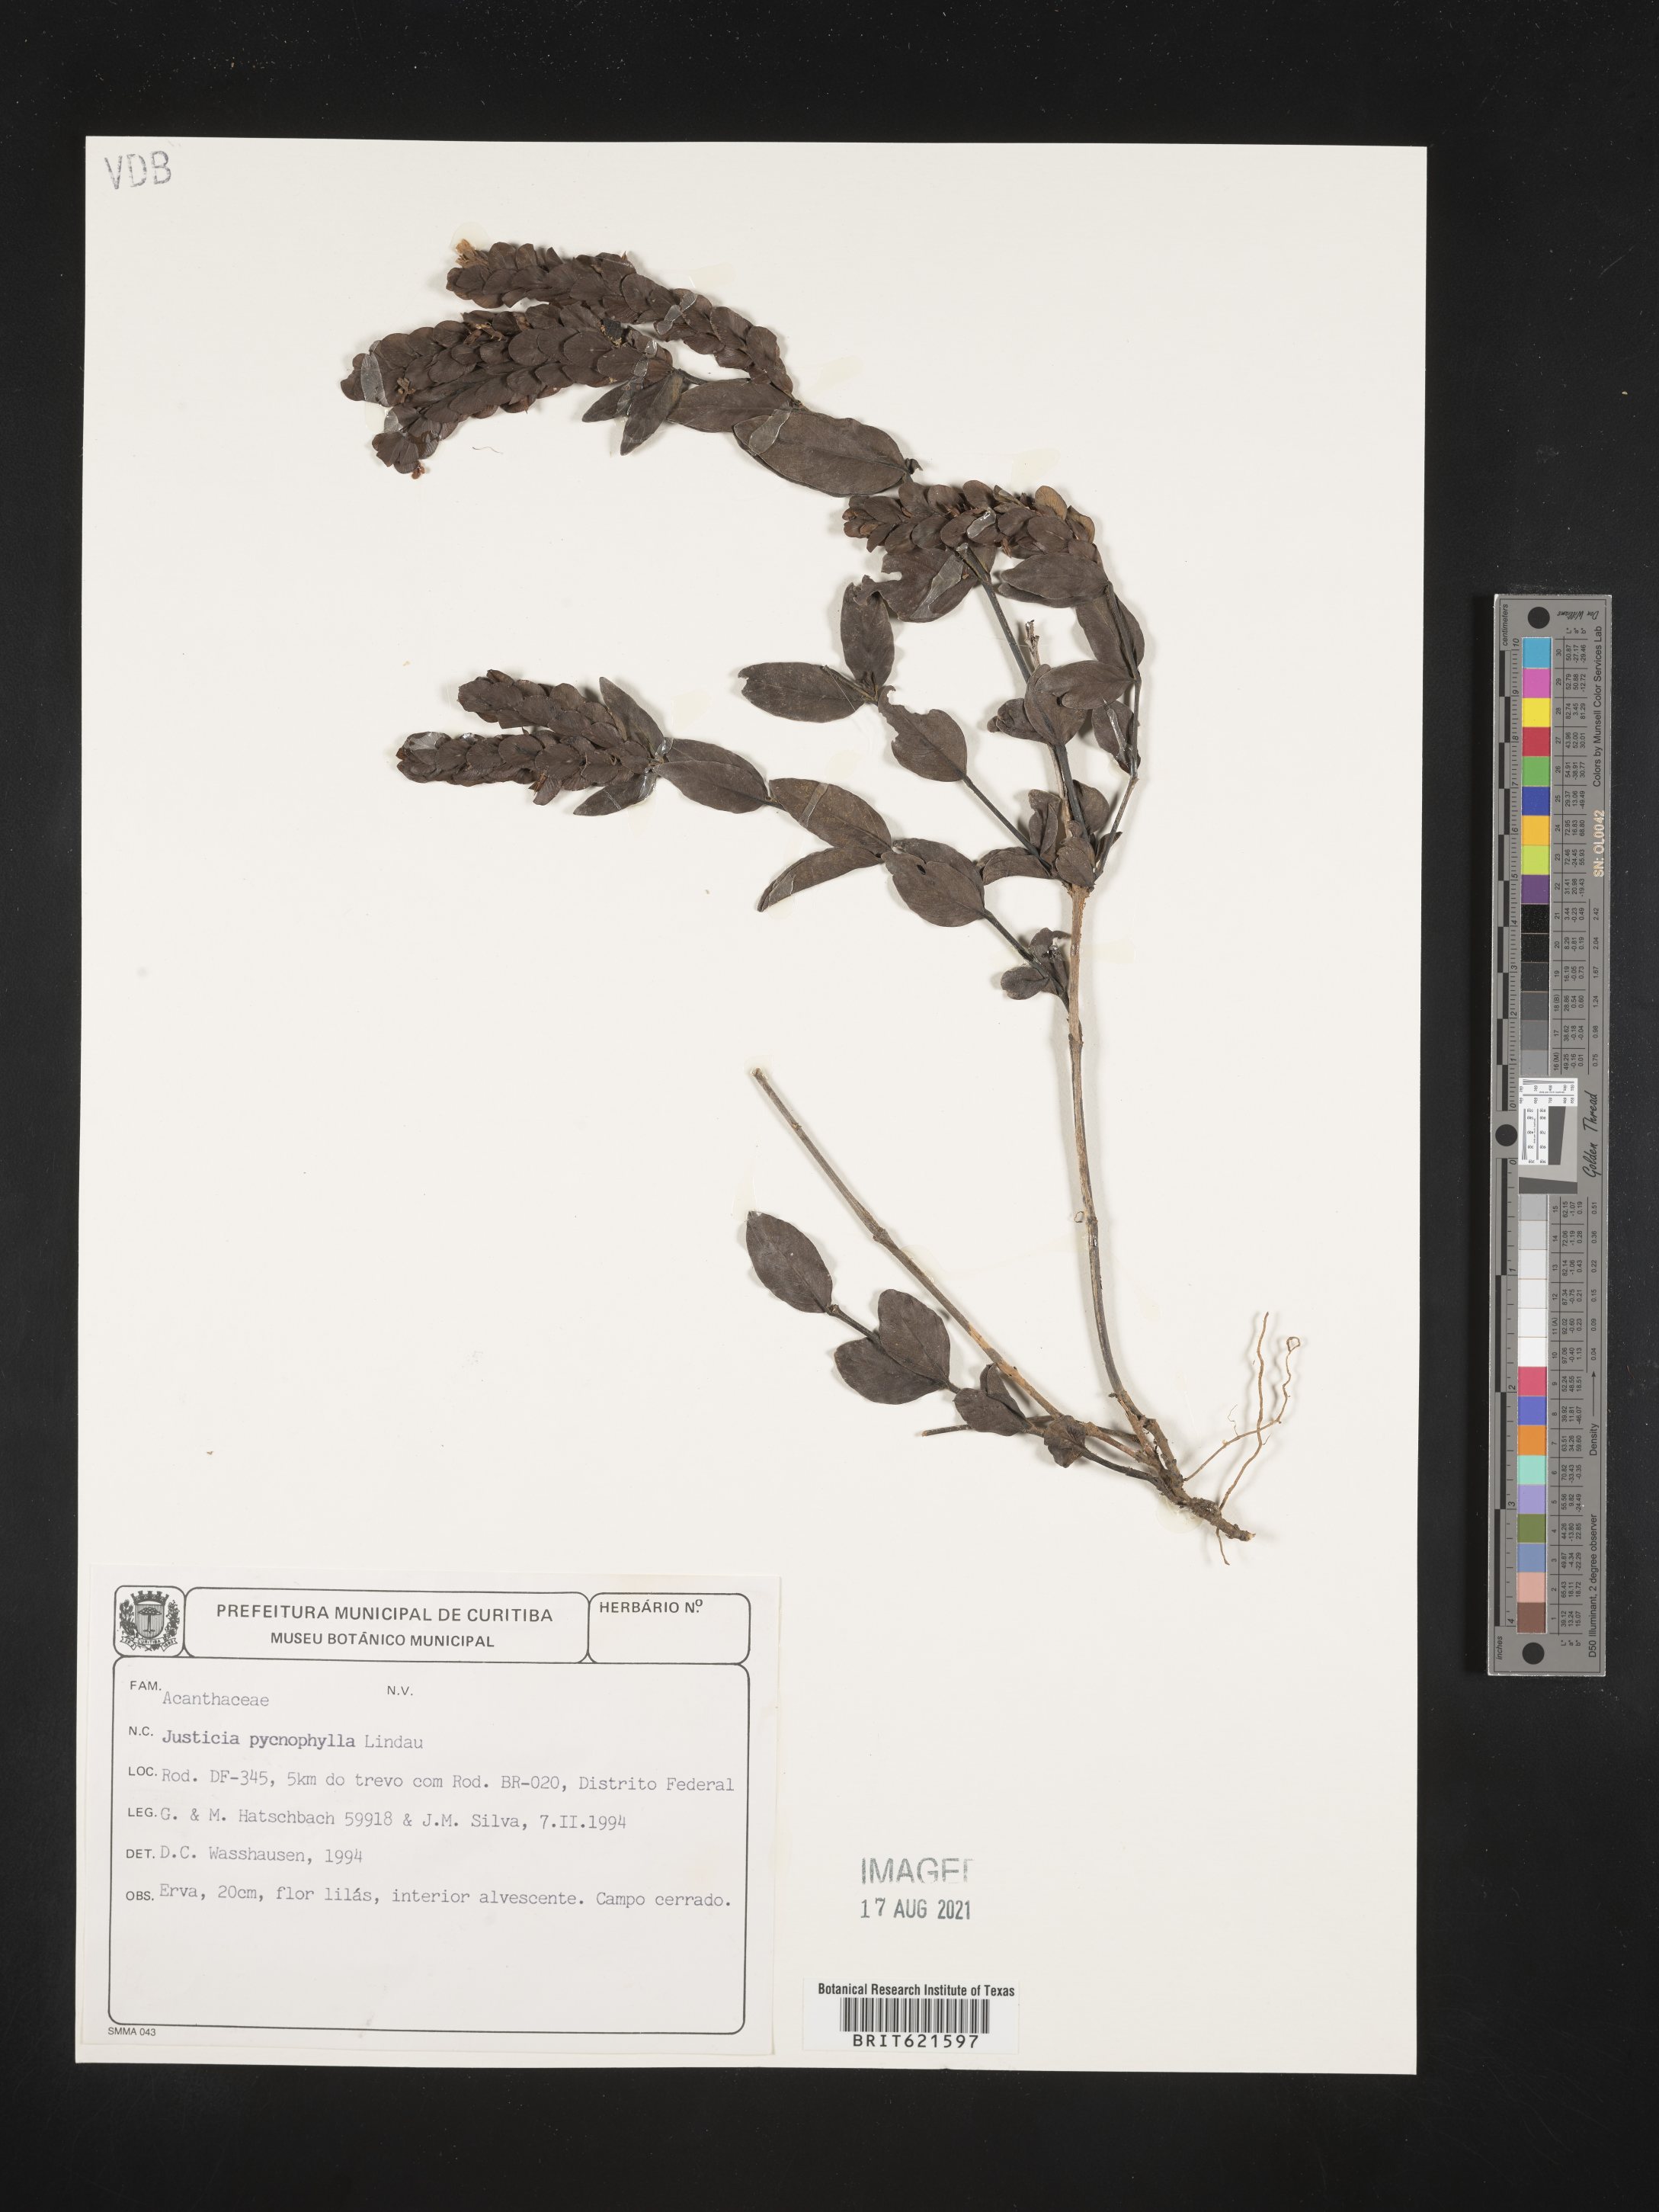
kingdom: Plantae
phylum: Tracheophyta
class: Magnoliopsida
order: Lamiales
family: Acanthaceae
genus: Justicia
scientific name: Justicia pycnophylla
